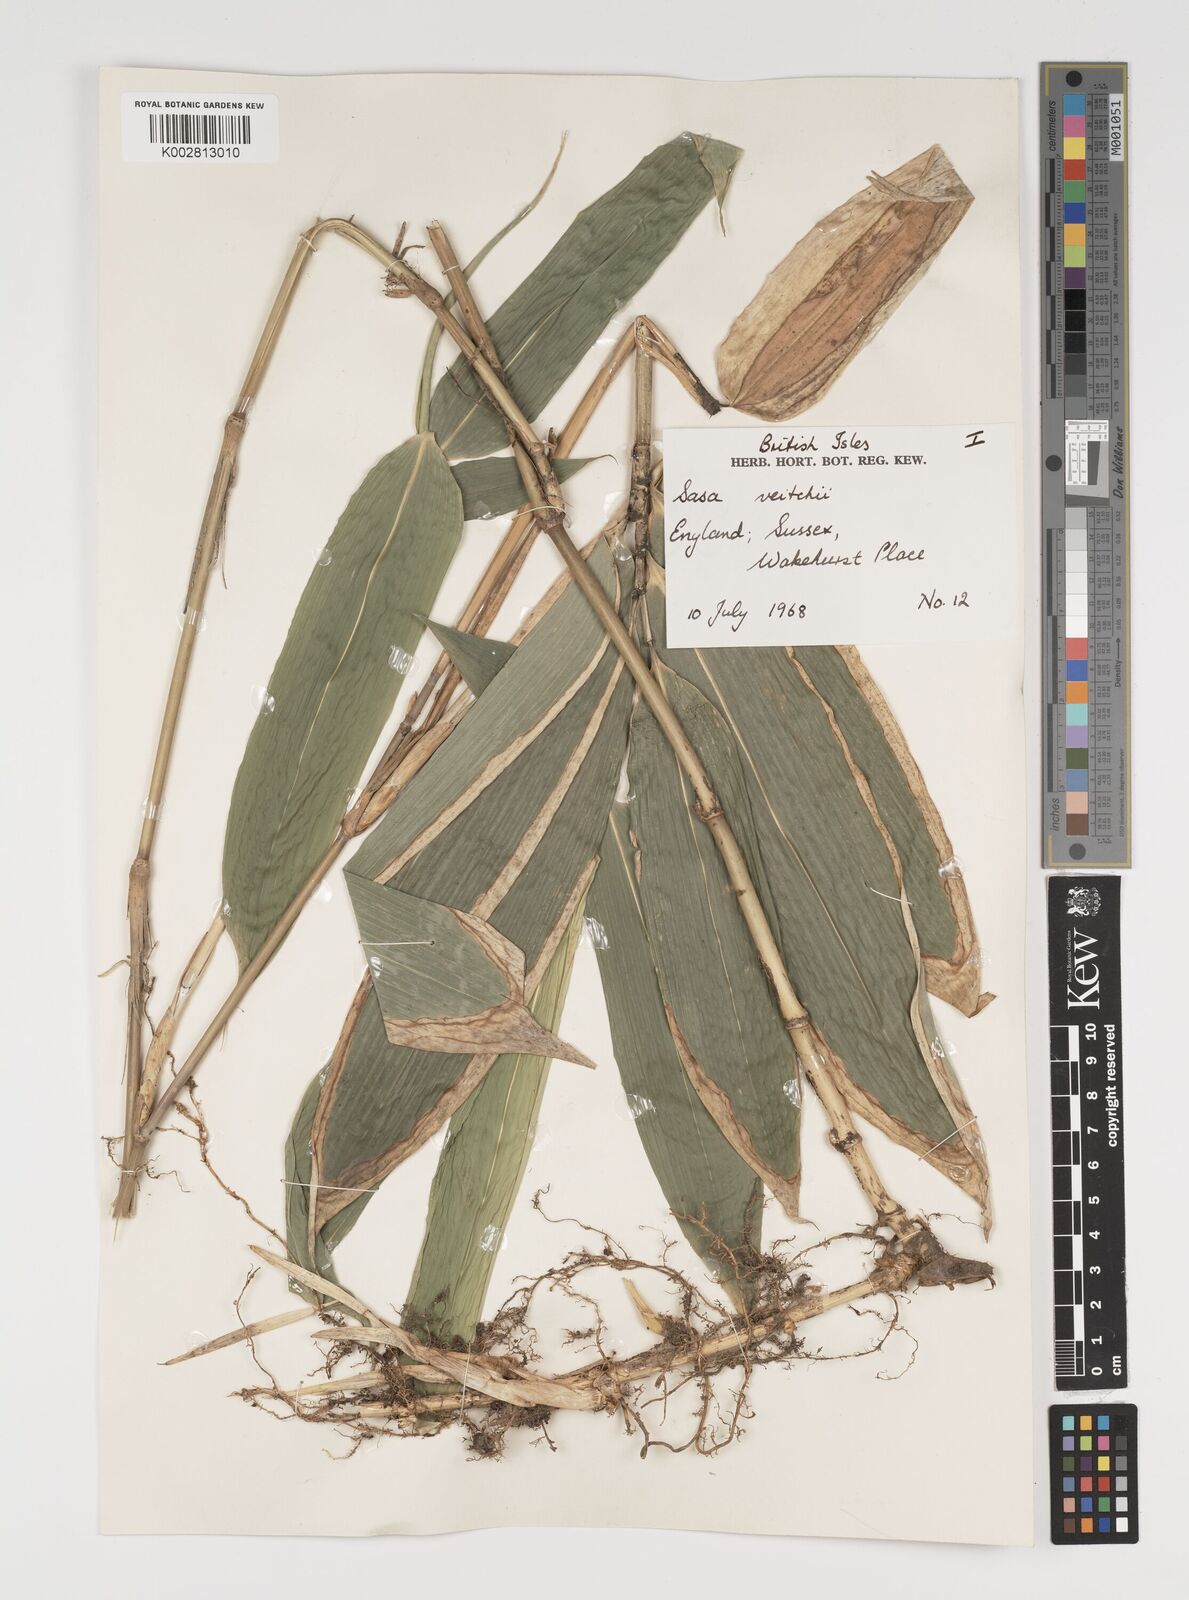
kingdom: Plantae
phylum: Tracheophyta
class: Liliopsida
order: Poales
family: Poaceae
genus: Sasa
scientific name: Sasa veitchii
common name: Veitch's bamboo
